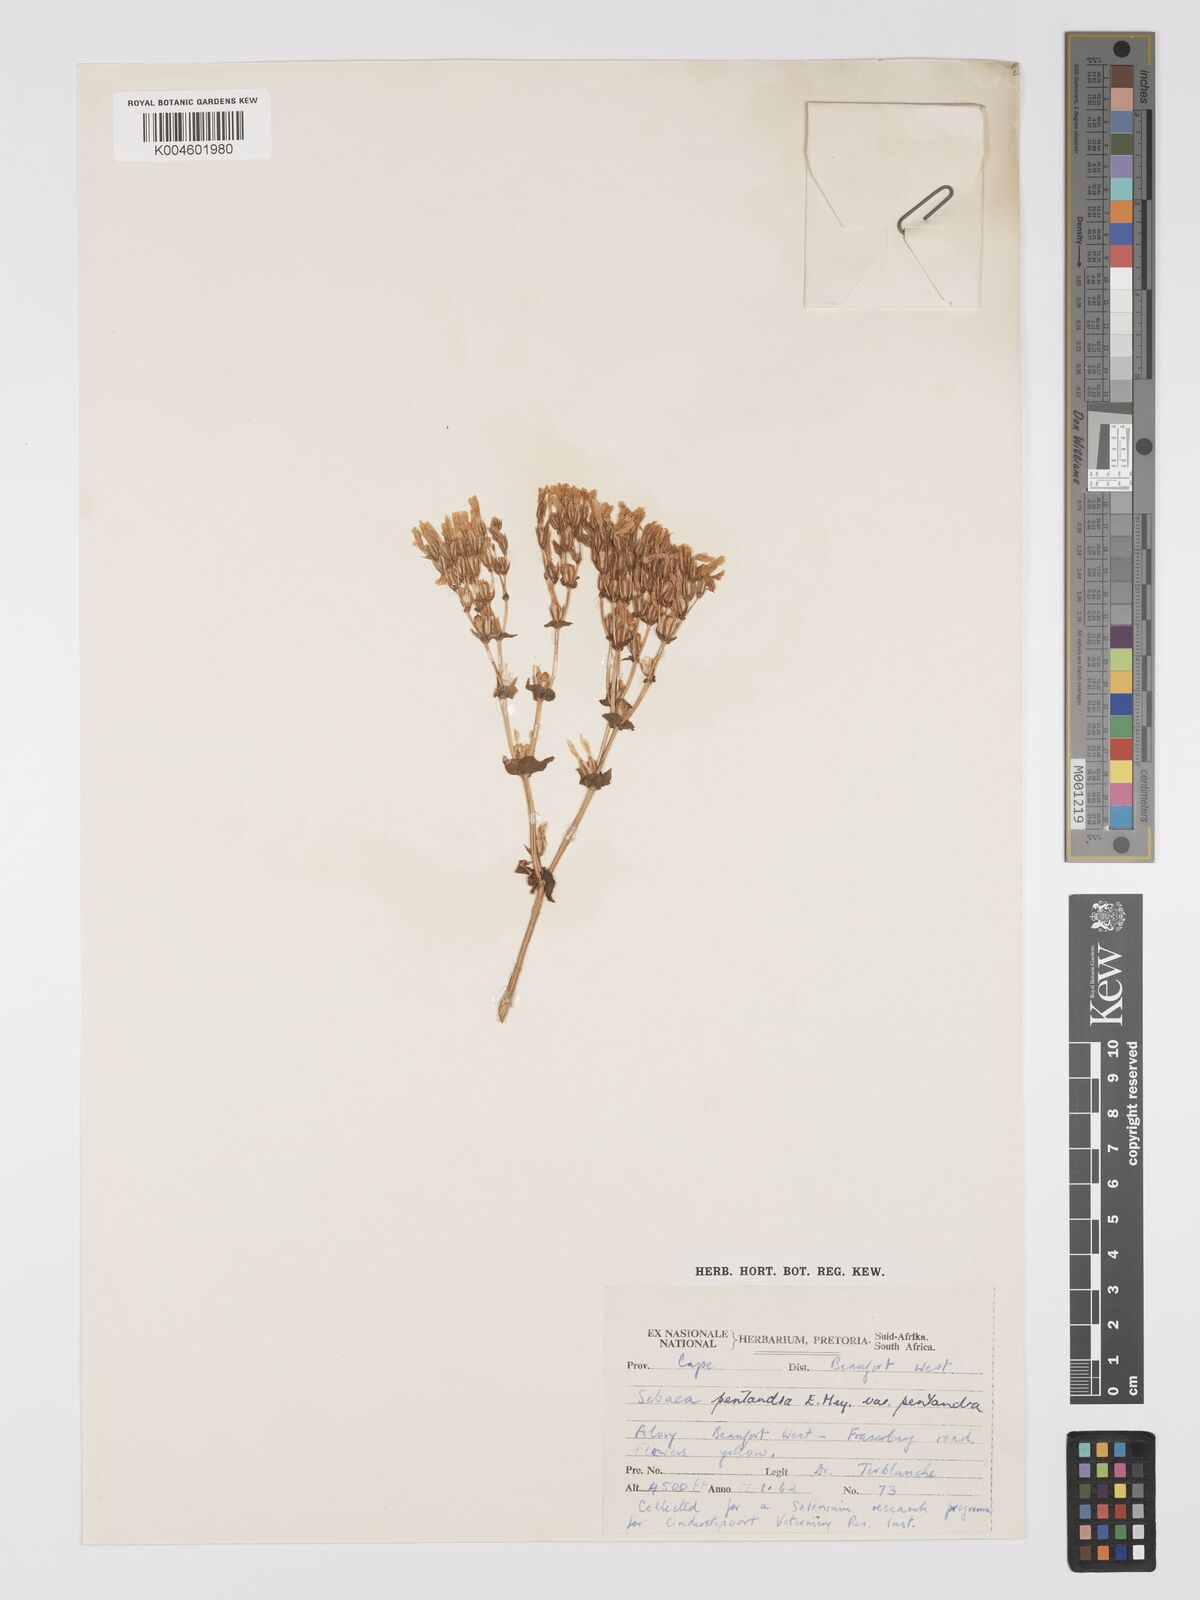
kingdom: Plantae
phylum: Tracheophyta
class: Magnoliopsida
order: Gentianales
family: Gentianaceae
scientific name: Gentianaceae
